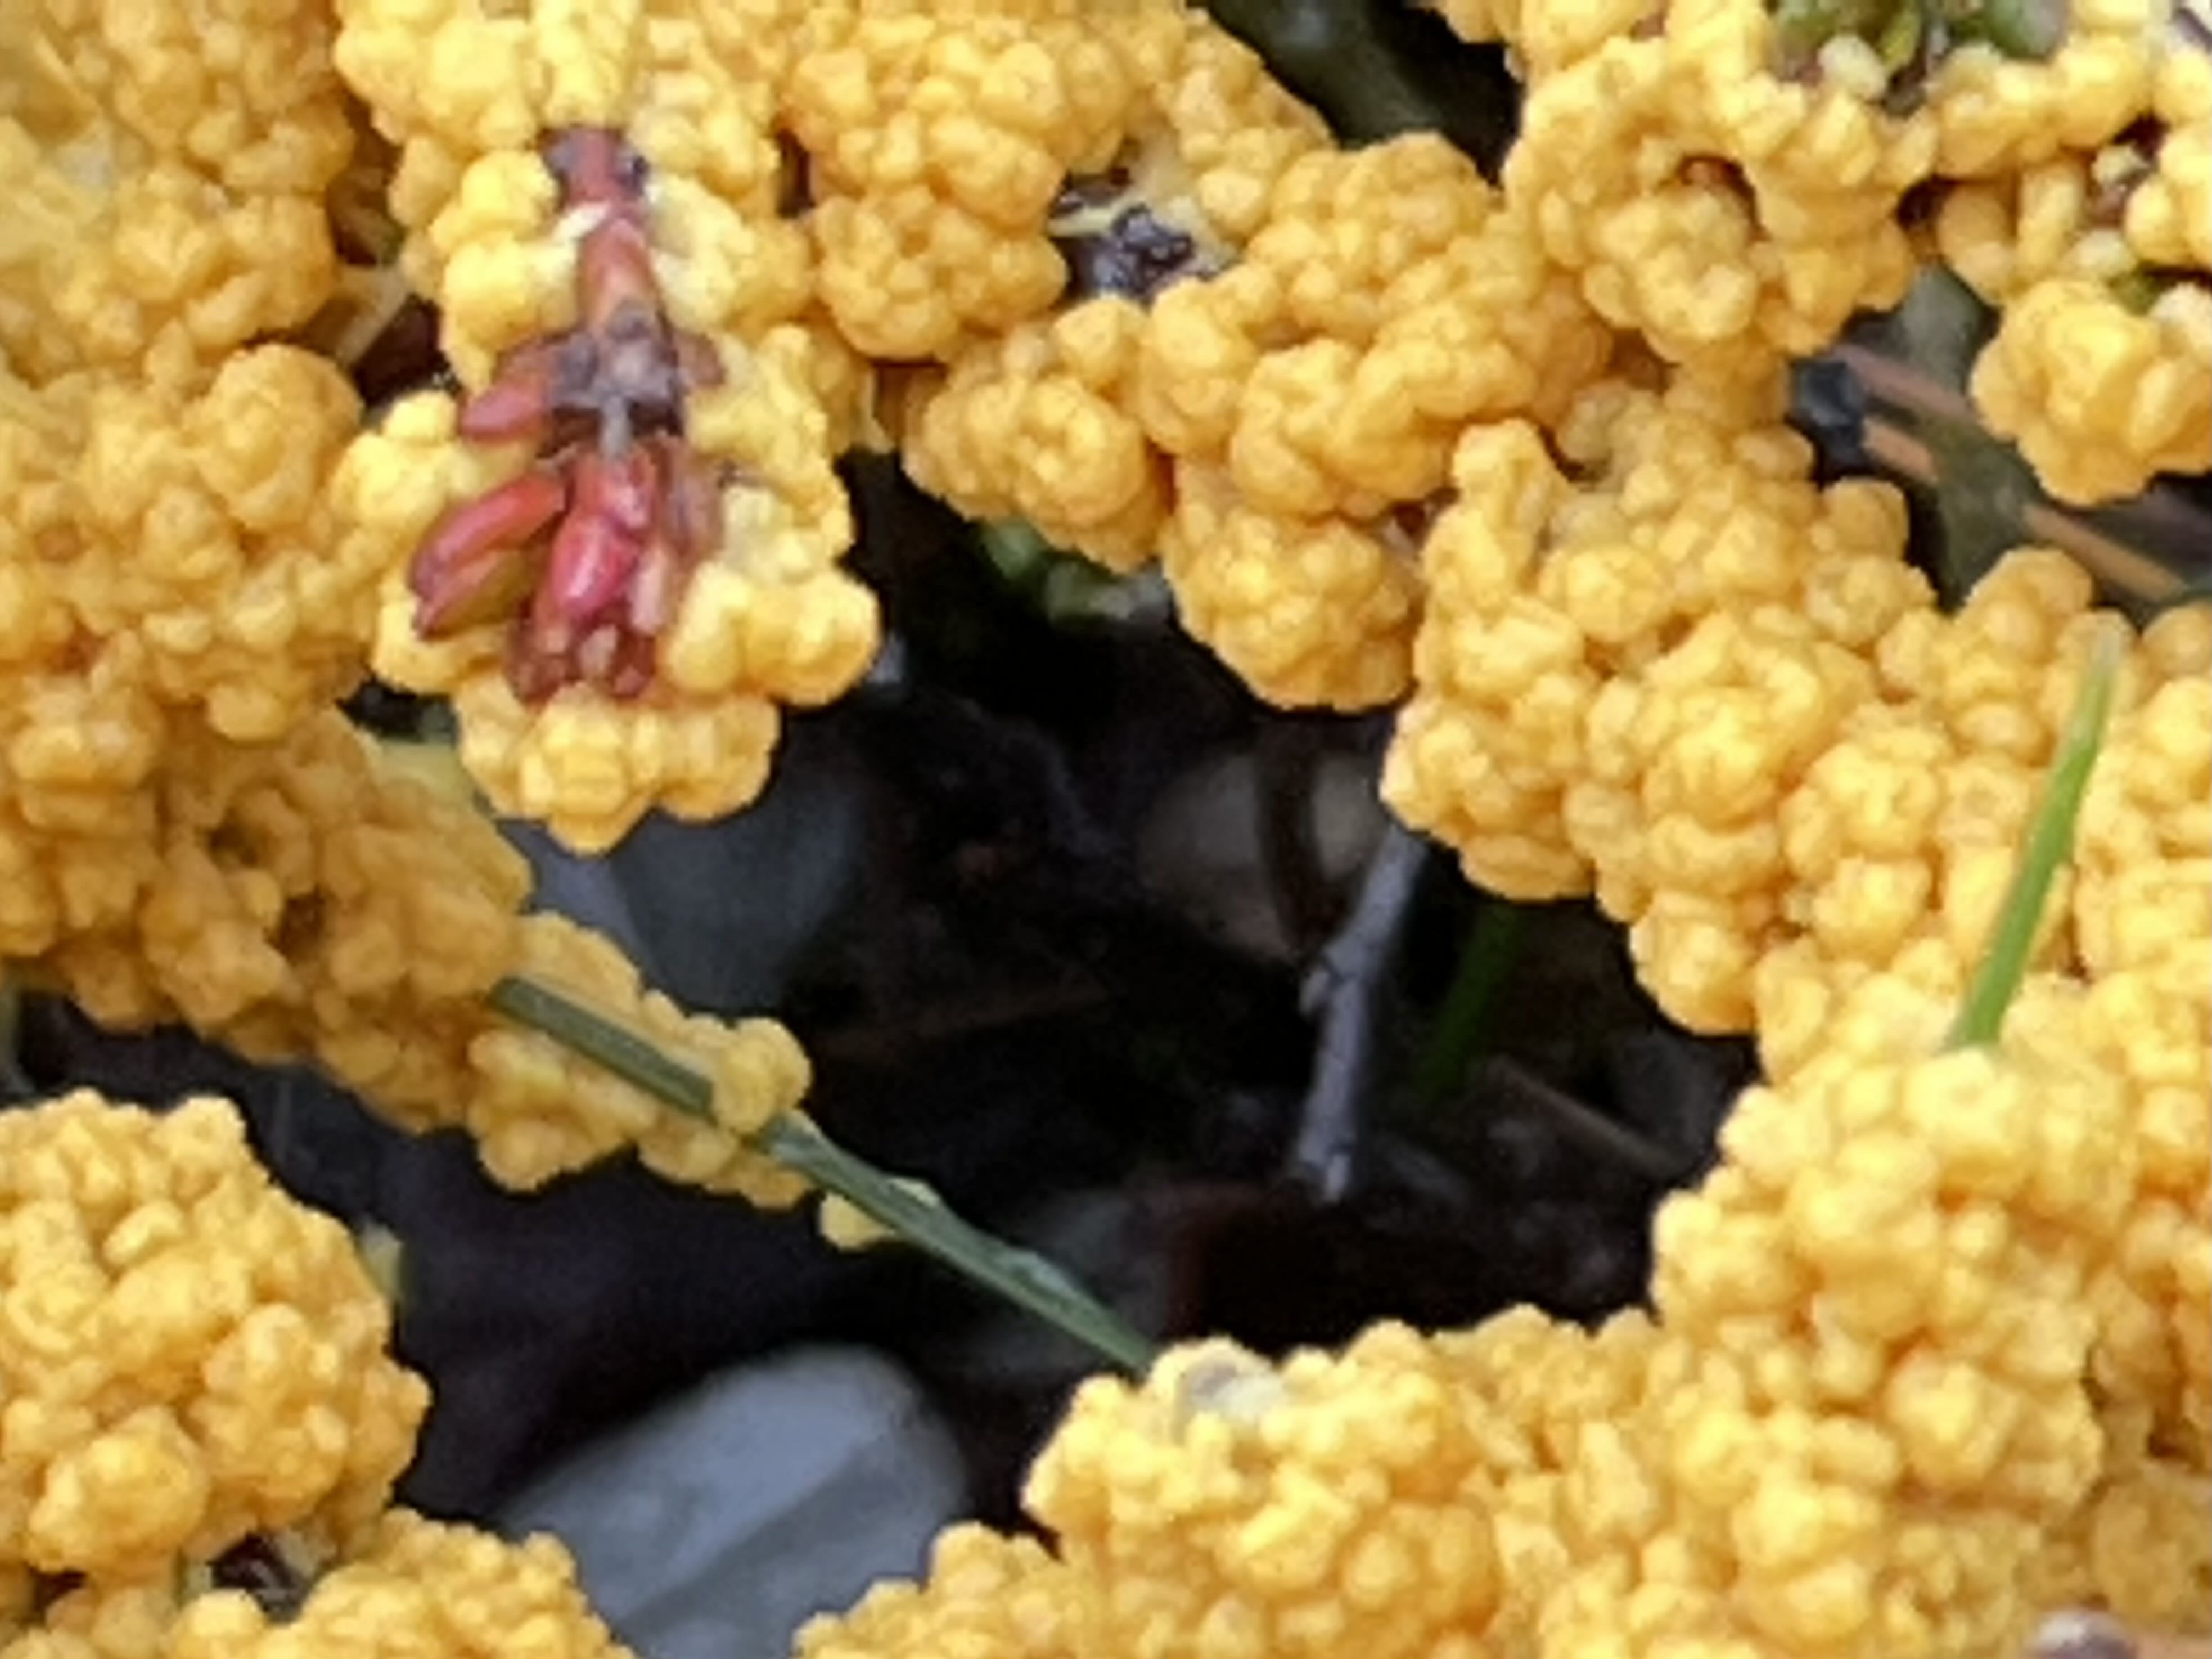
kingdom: Protozoa
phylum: Mycetozoa
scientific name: Mycetozoa
